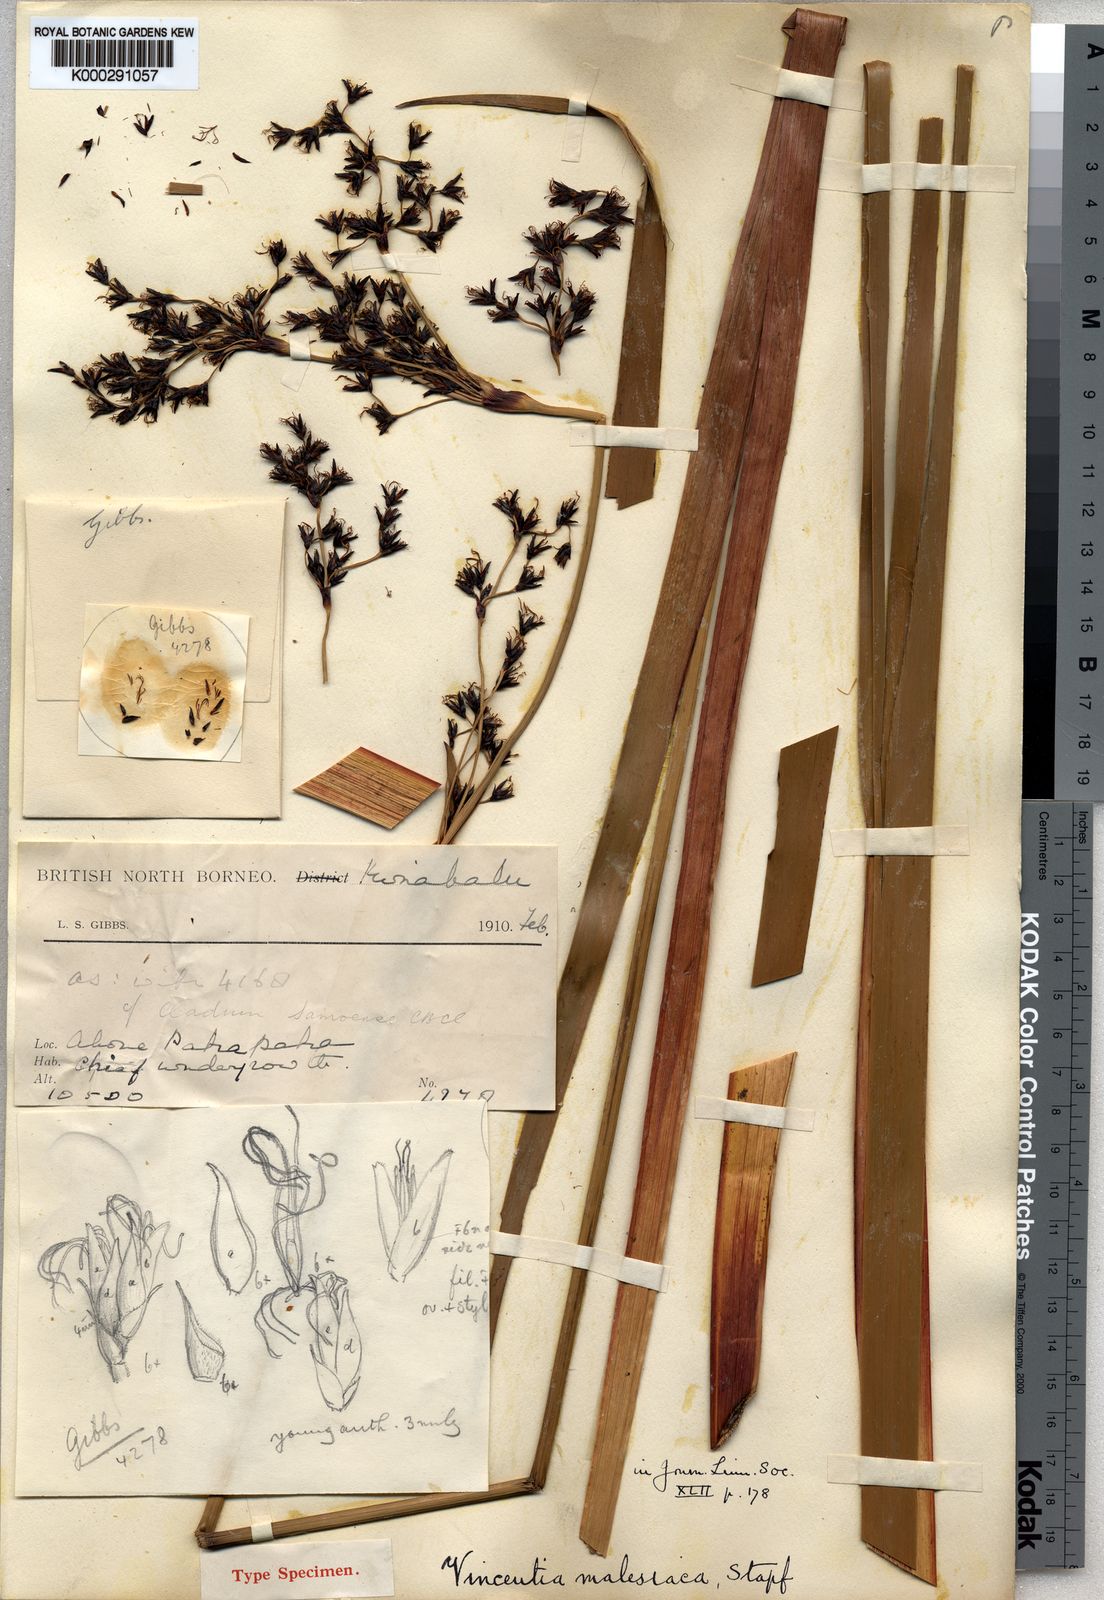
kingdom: Plantae
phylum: Tracheophyta
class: Liliopsida
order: Poales
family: Cyperaceae
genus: Machaerina
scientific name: Machaerina falcata
